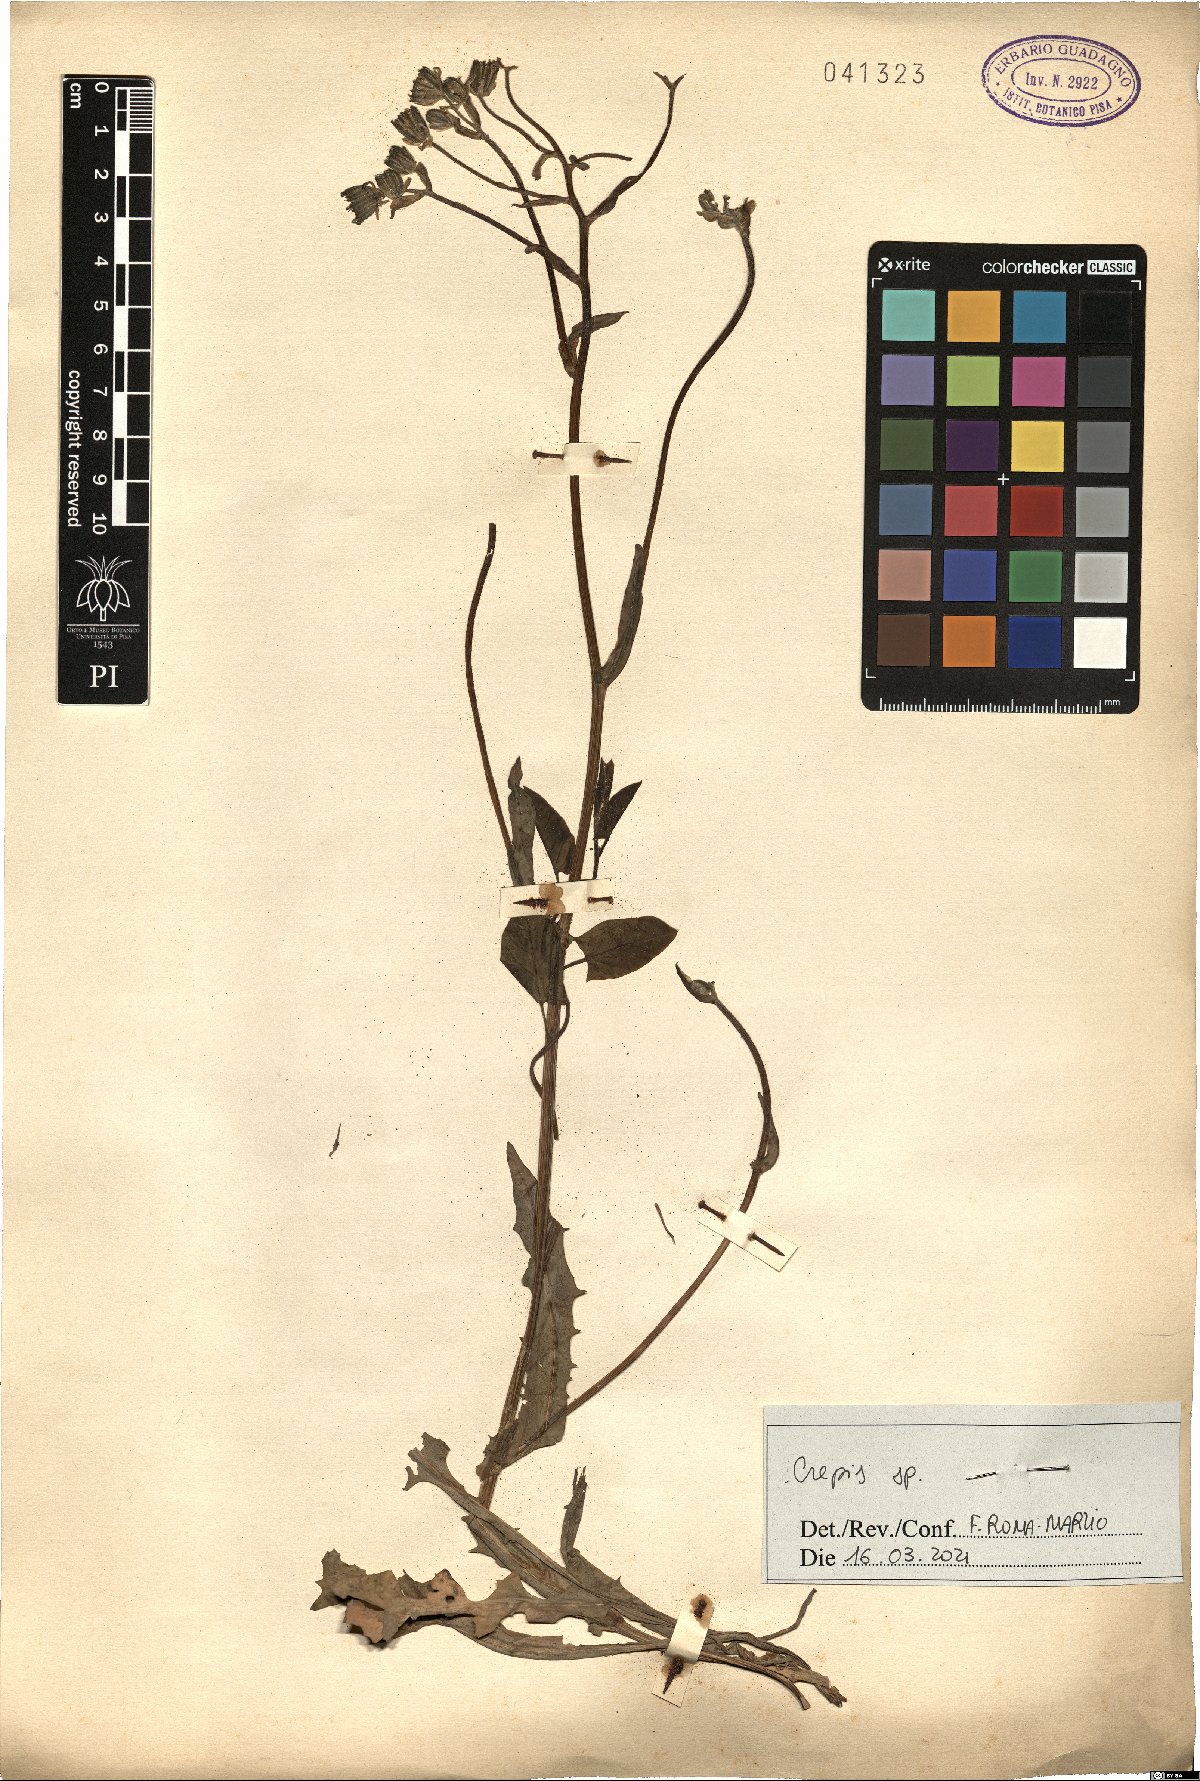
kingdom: Plantae
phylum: Tracheophyta
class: Magnoliopsida
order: Asterales
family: Asteraceae
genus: Crepis
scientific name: Crepis
